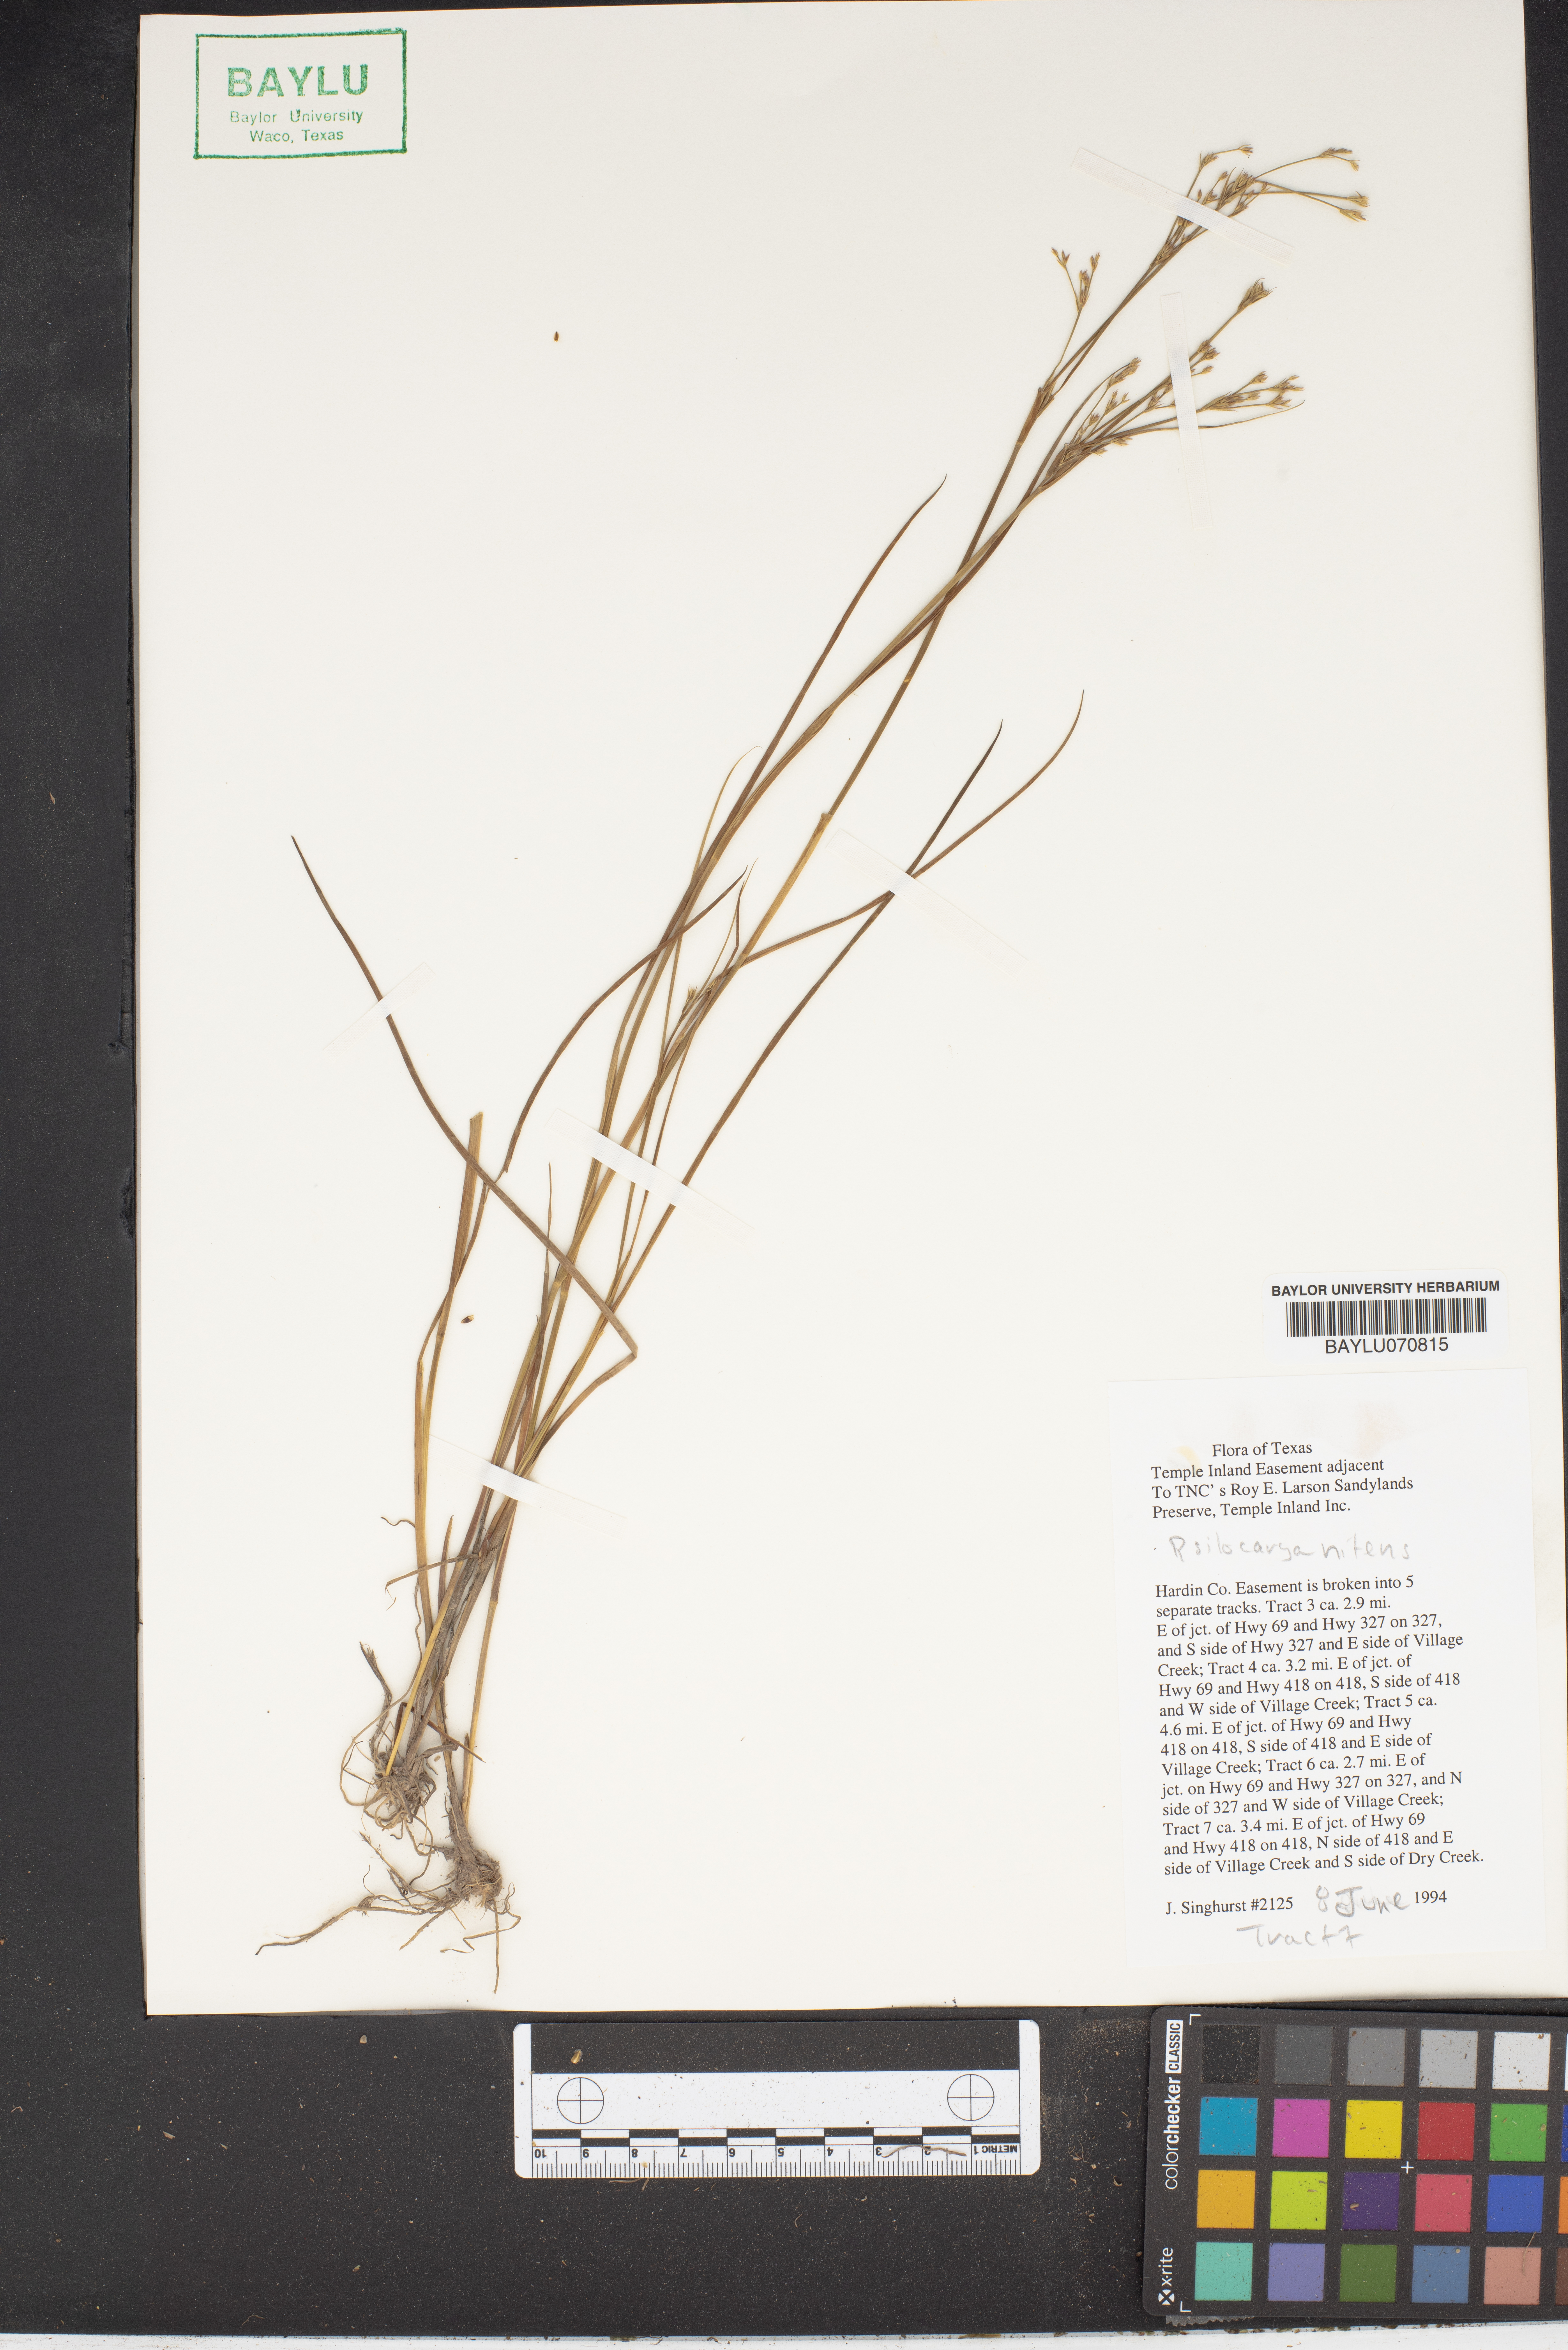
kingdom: Plantae
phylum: Tracheophyta
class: Liliopsida
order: Poales
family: Cyperaceae
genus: Rhynchospora
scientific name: Rhynchospora nitens
